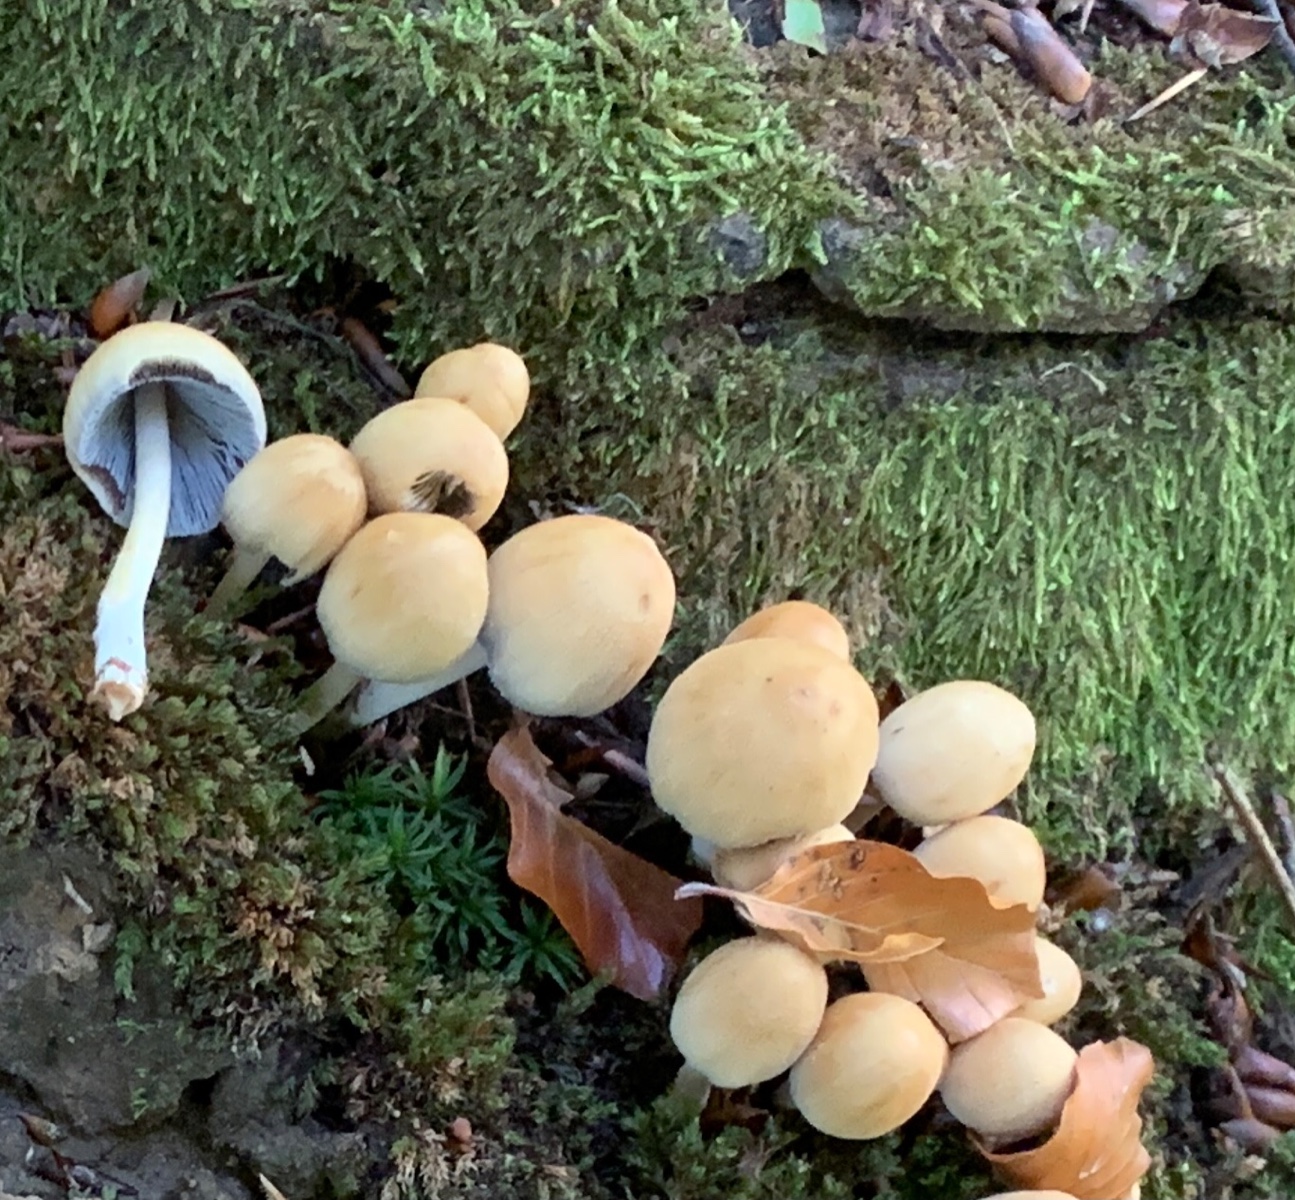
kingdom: Fungi
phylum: Basidiomycota
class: Agaricomycetes
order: Agaricales
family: Psathyrellaceae
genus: Coprinellus
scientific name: Coprinellus micaceus
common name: glimmer-blækhat
